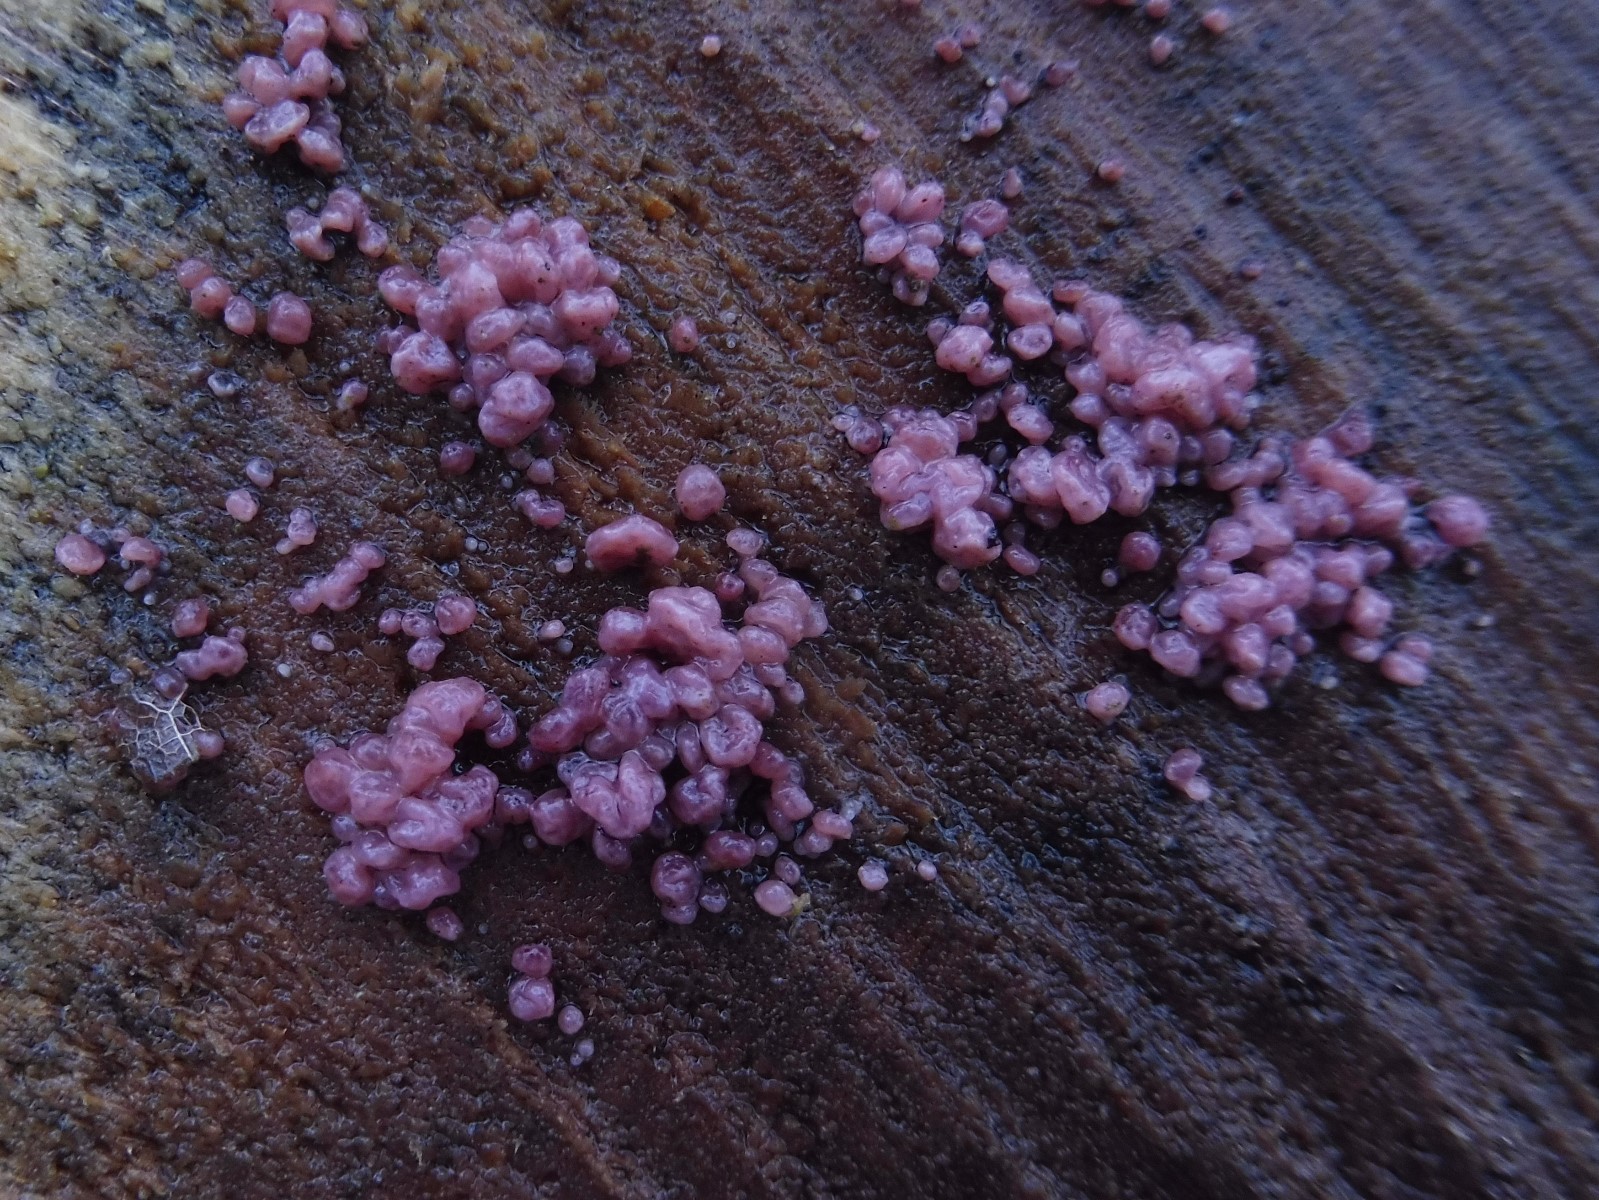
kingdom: Fungi
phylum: Ascomycota
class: Leotiomycetes
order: Helotiales
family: Gelatinodiscaceae
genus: Ascocoryne
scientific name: Ascocoryne sarcoides
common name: rødlilla sejskive
